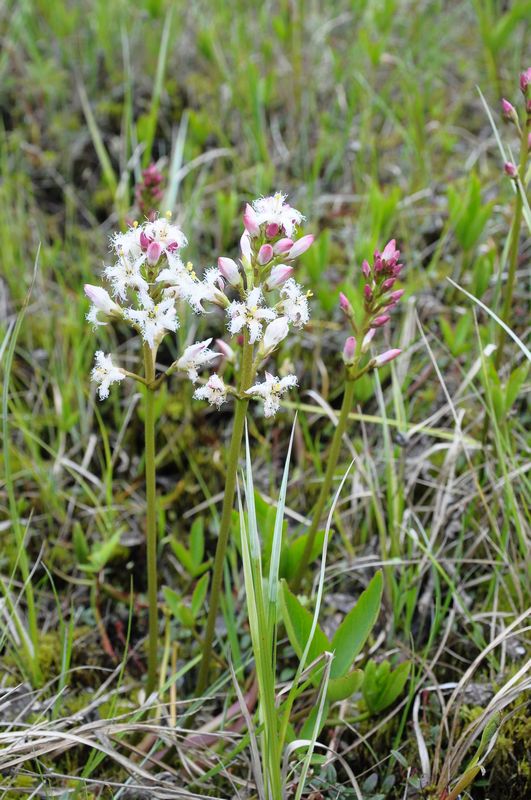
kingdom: Plantae
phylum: Tracheophyta
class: Magnoliopsida
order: Asterales
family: Menyanthaceae
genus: Menyanthes
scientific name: Menyanthes trifoliata
